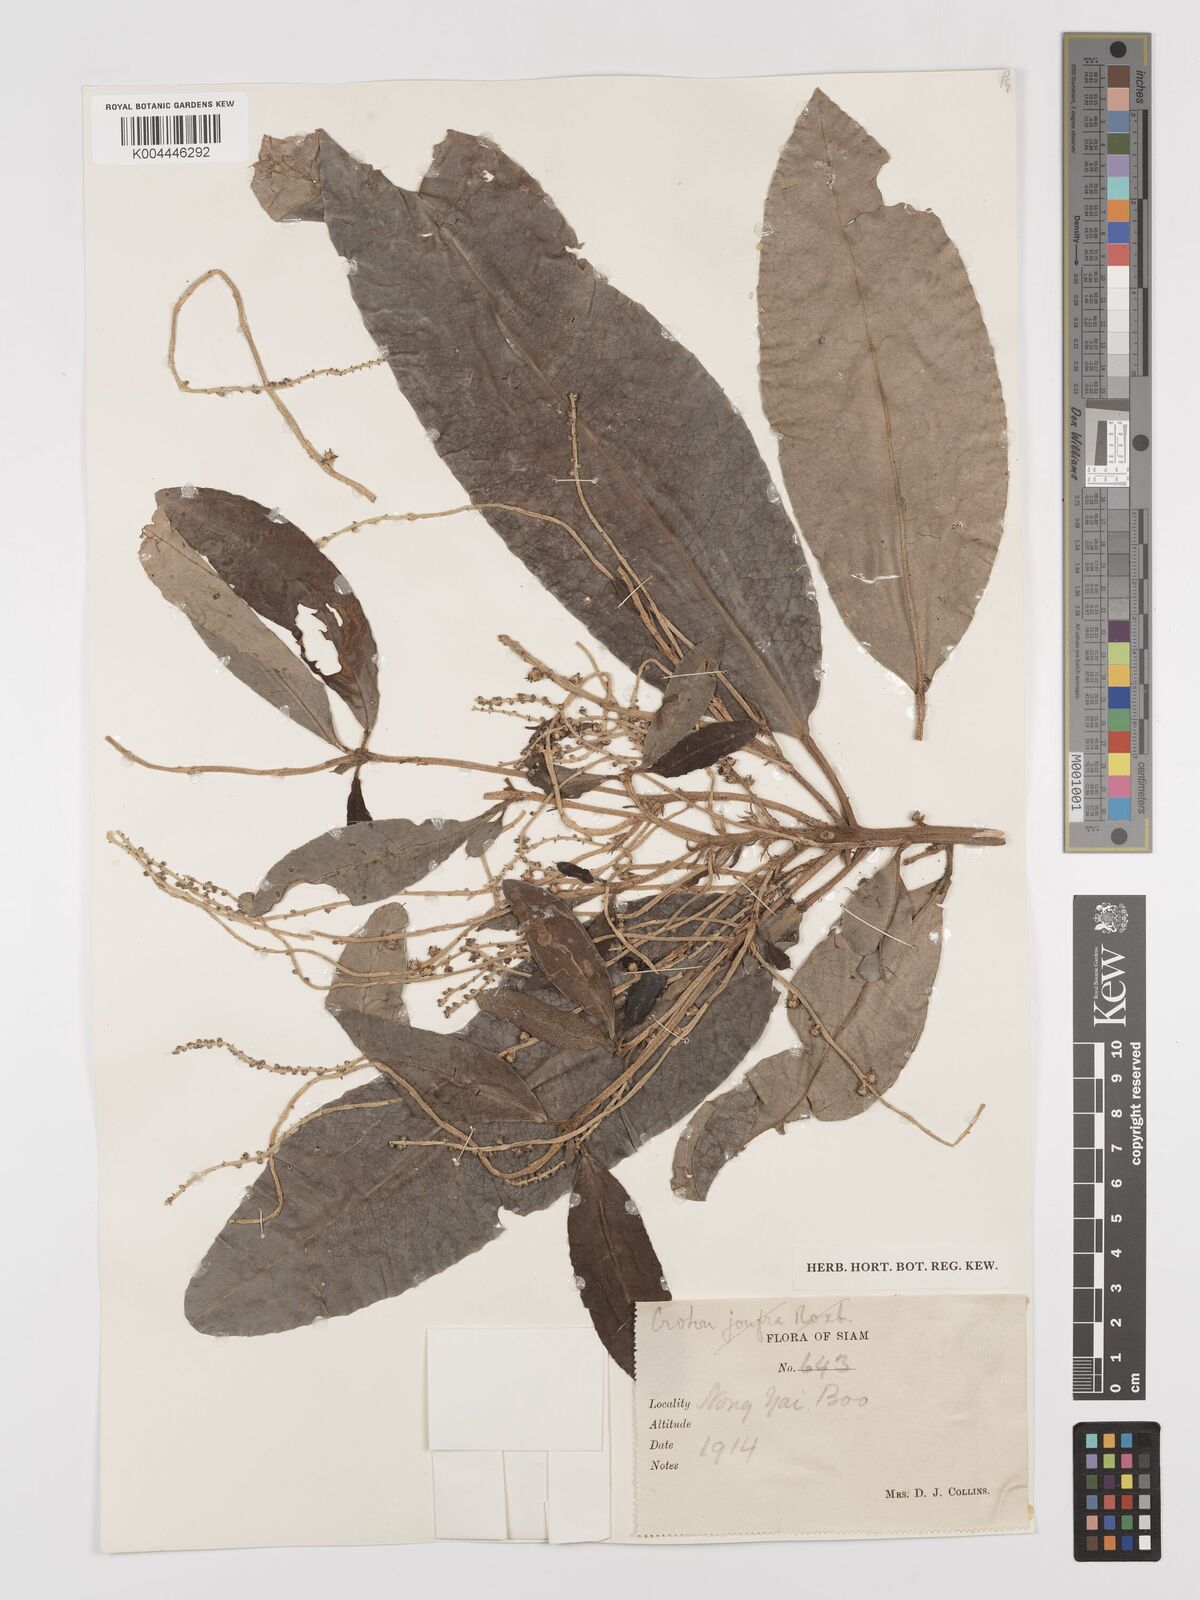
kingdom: Plantae
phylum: Tracheophyta
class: Magnoliopsida
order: Malpighiales
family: Euphorbiaceae
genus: Croton
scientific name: Croton robustus
